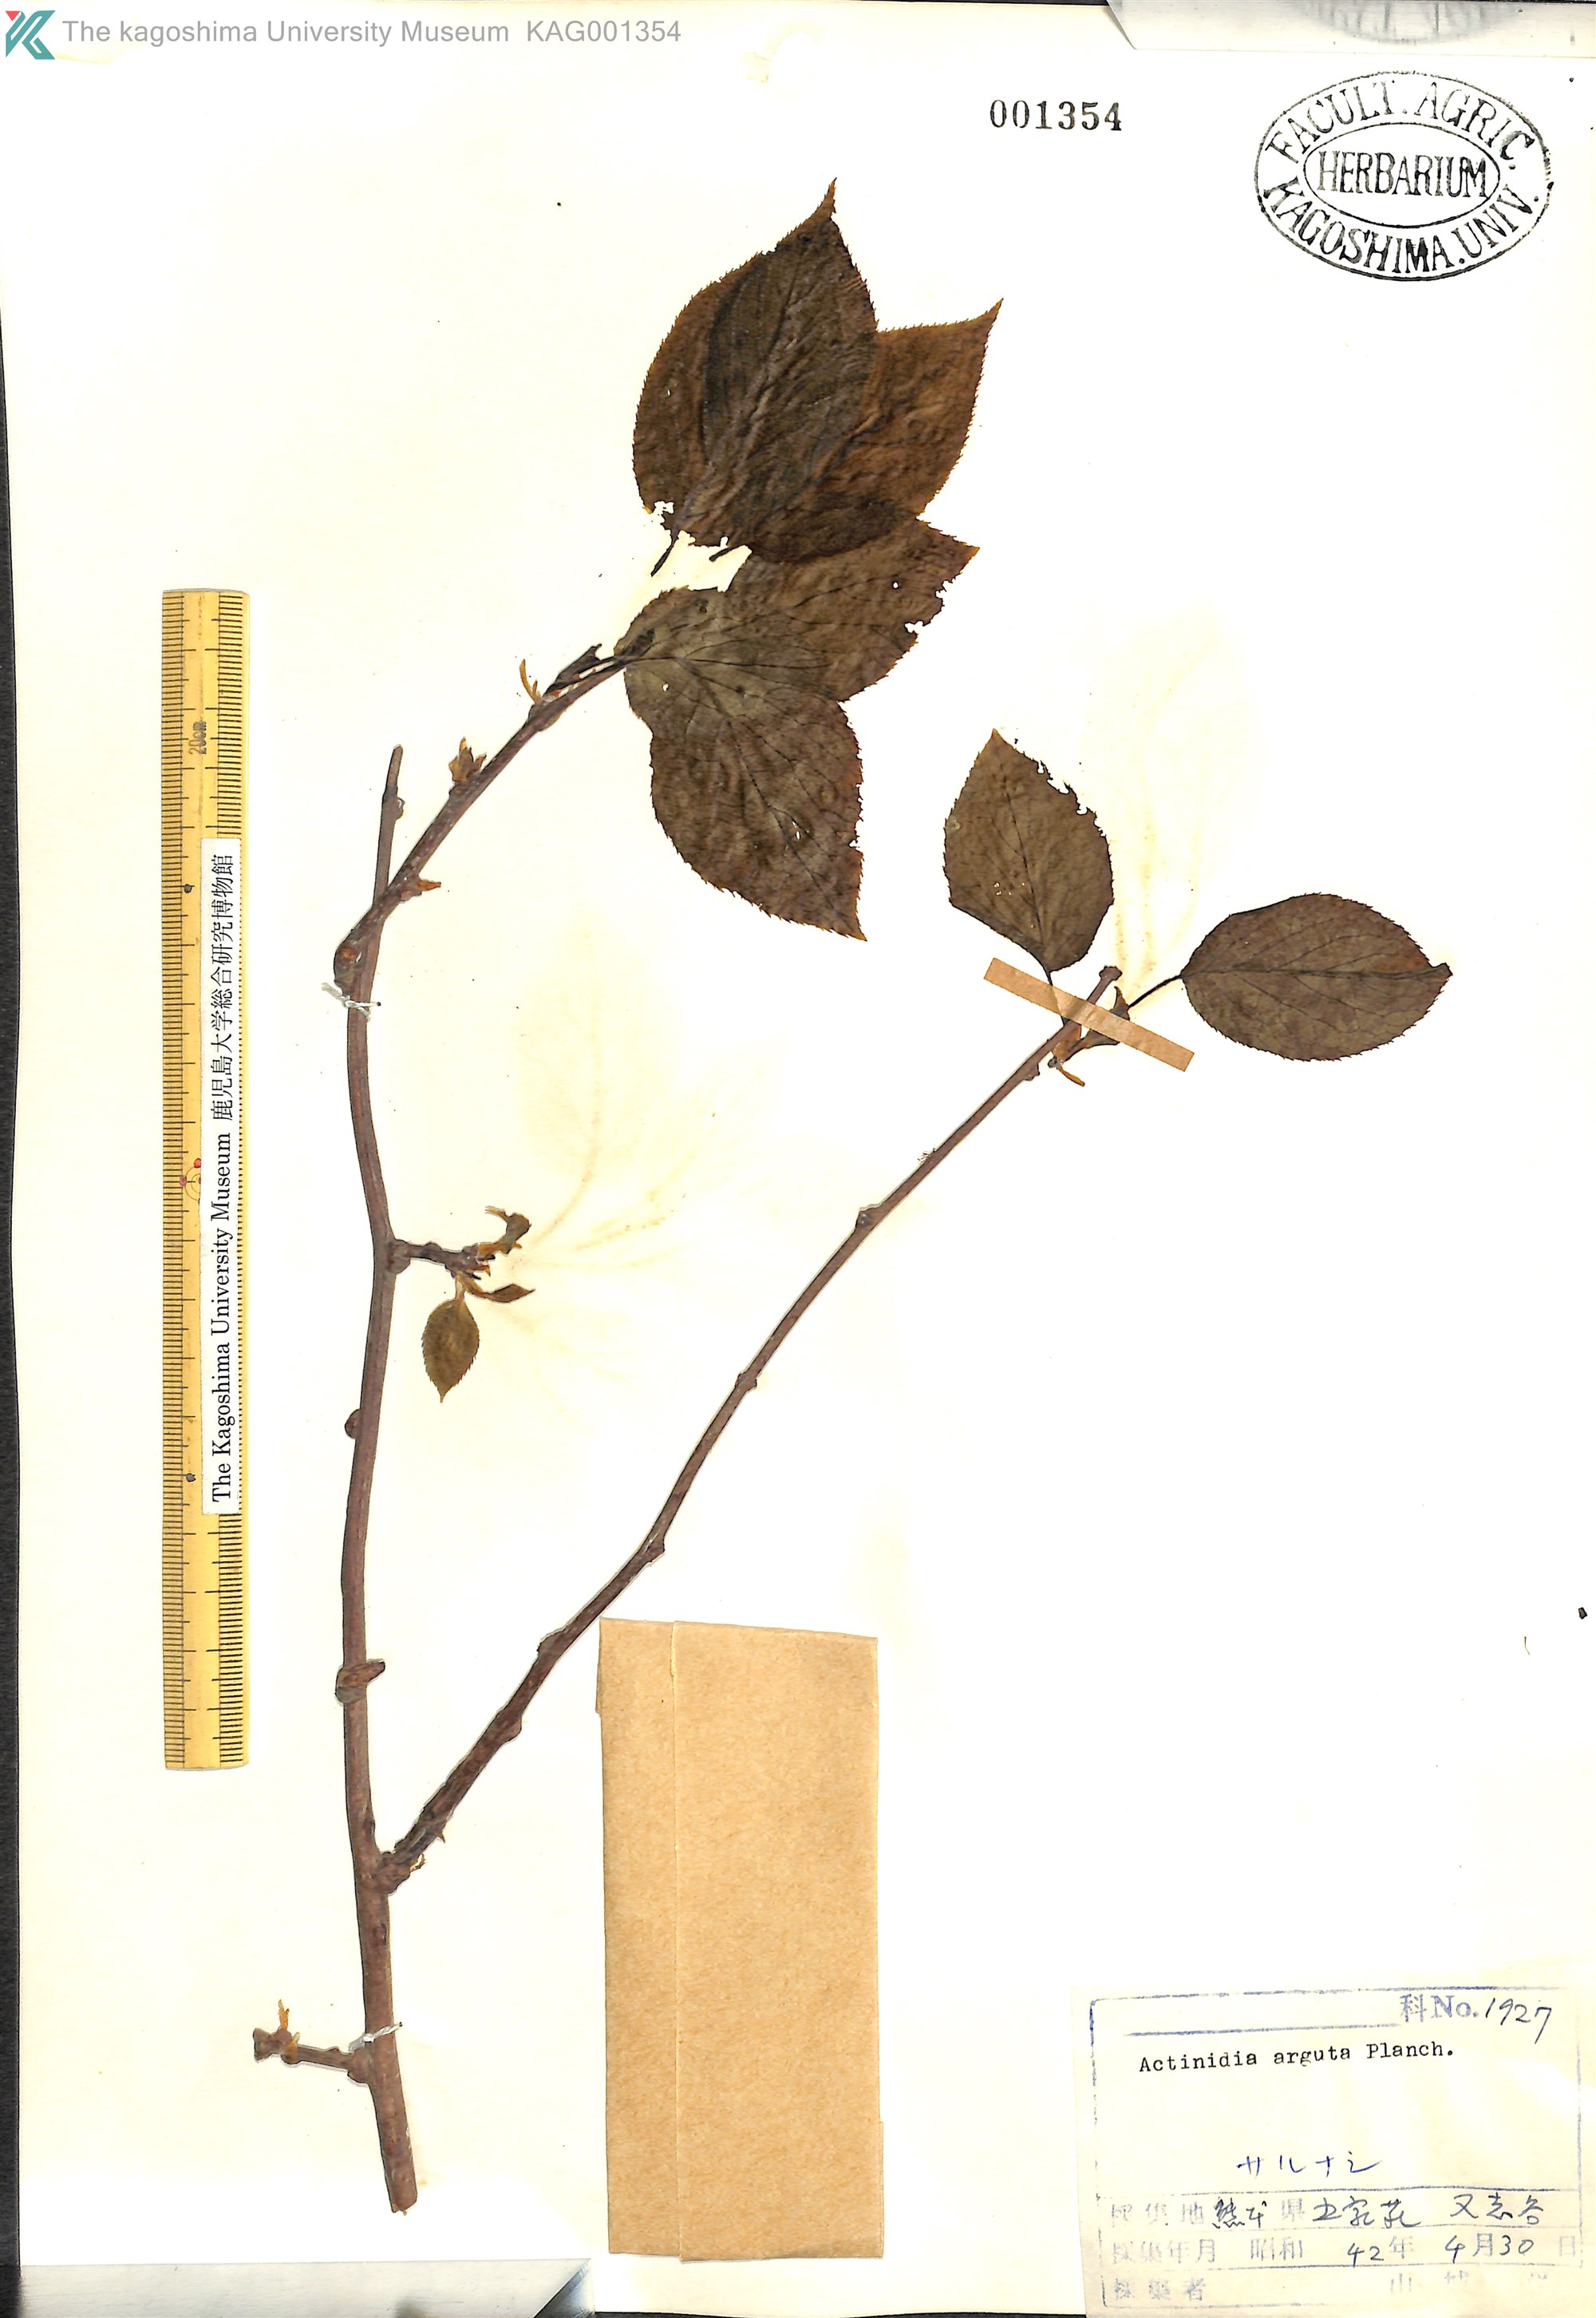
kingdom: Plantae
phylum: Tracheophyta
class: Magnoliopsida
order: Ericales
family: Actinidiaceae
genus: Actinidia
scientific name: Actinidia arguta
